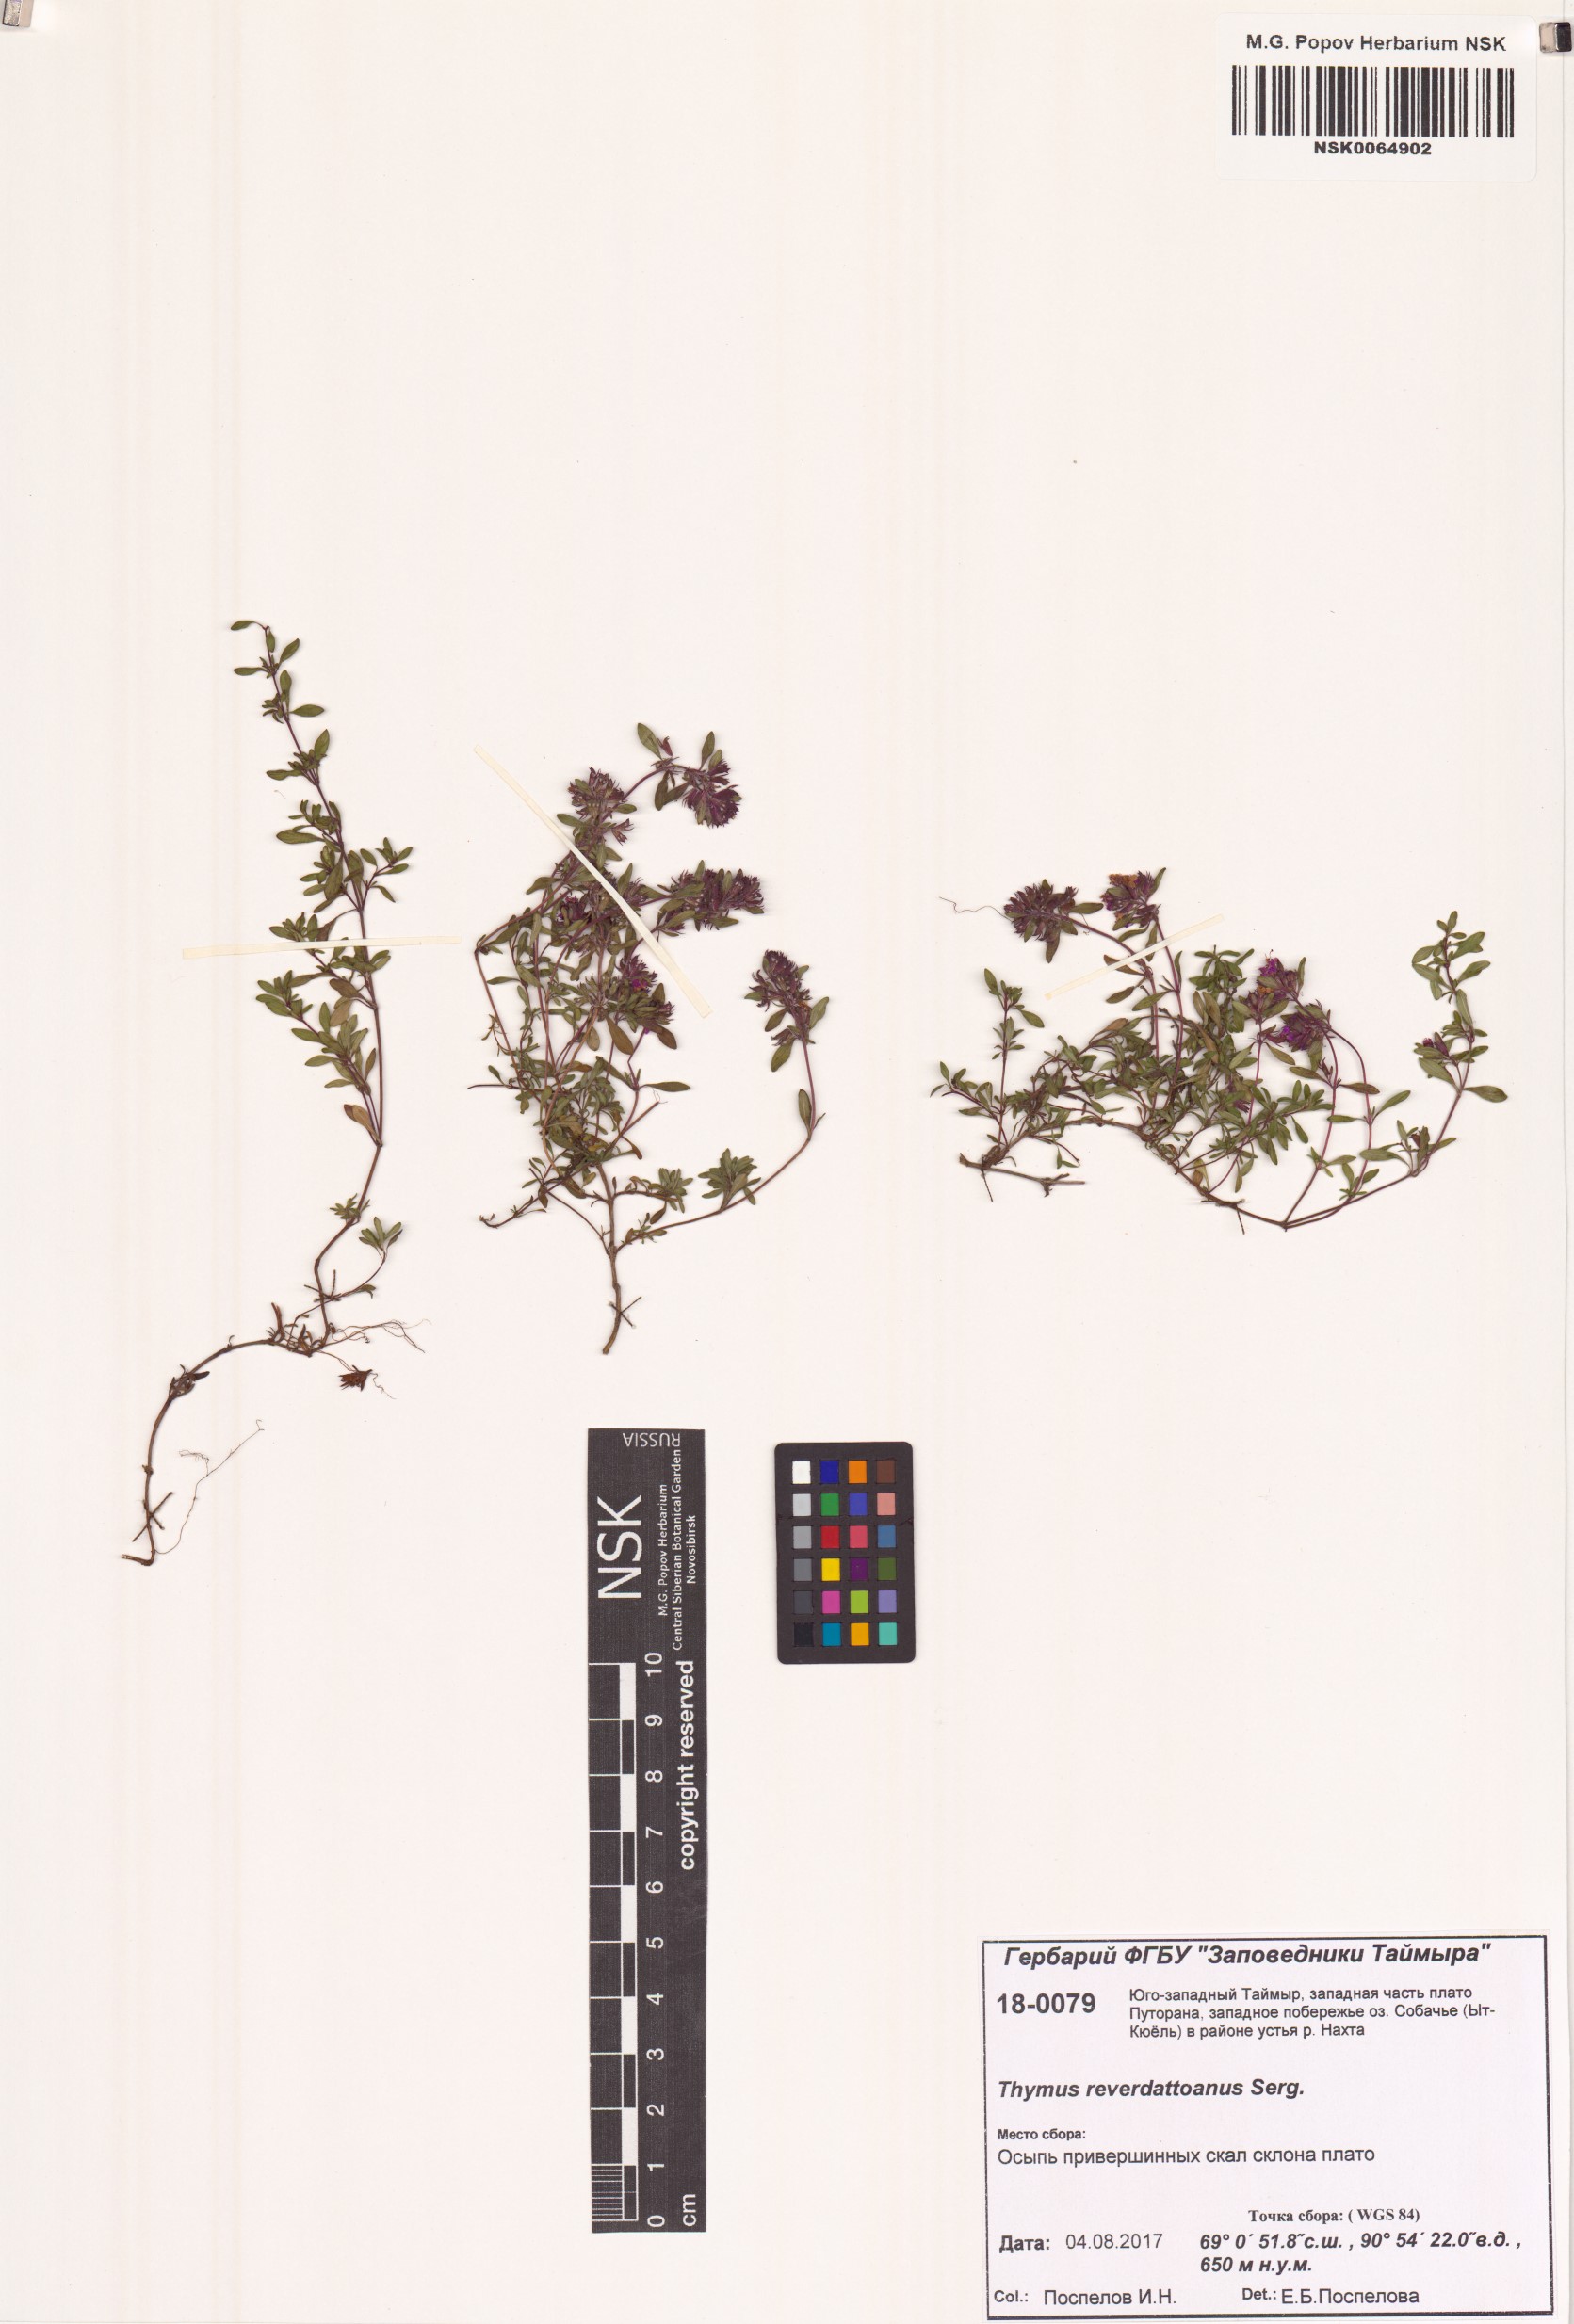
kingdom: Plantae
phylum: Tracheophyta
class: Magnoliopsida
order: Lamiales
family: Lamiaceae
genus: Thymus
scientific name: Thymus reverdattoanus
